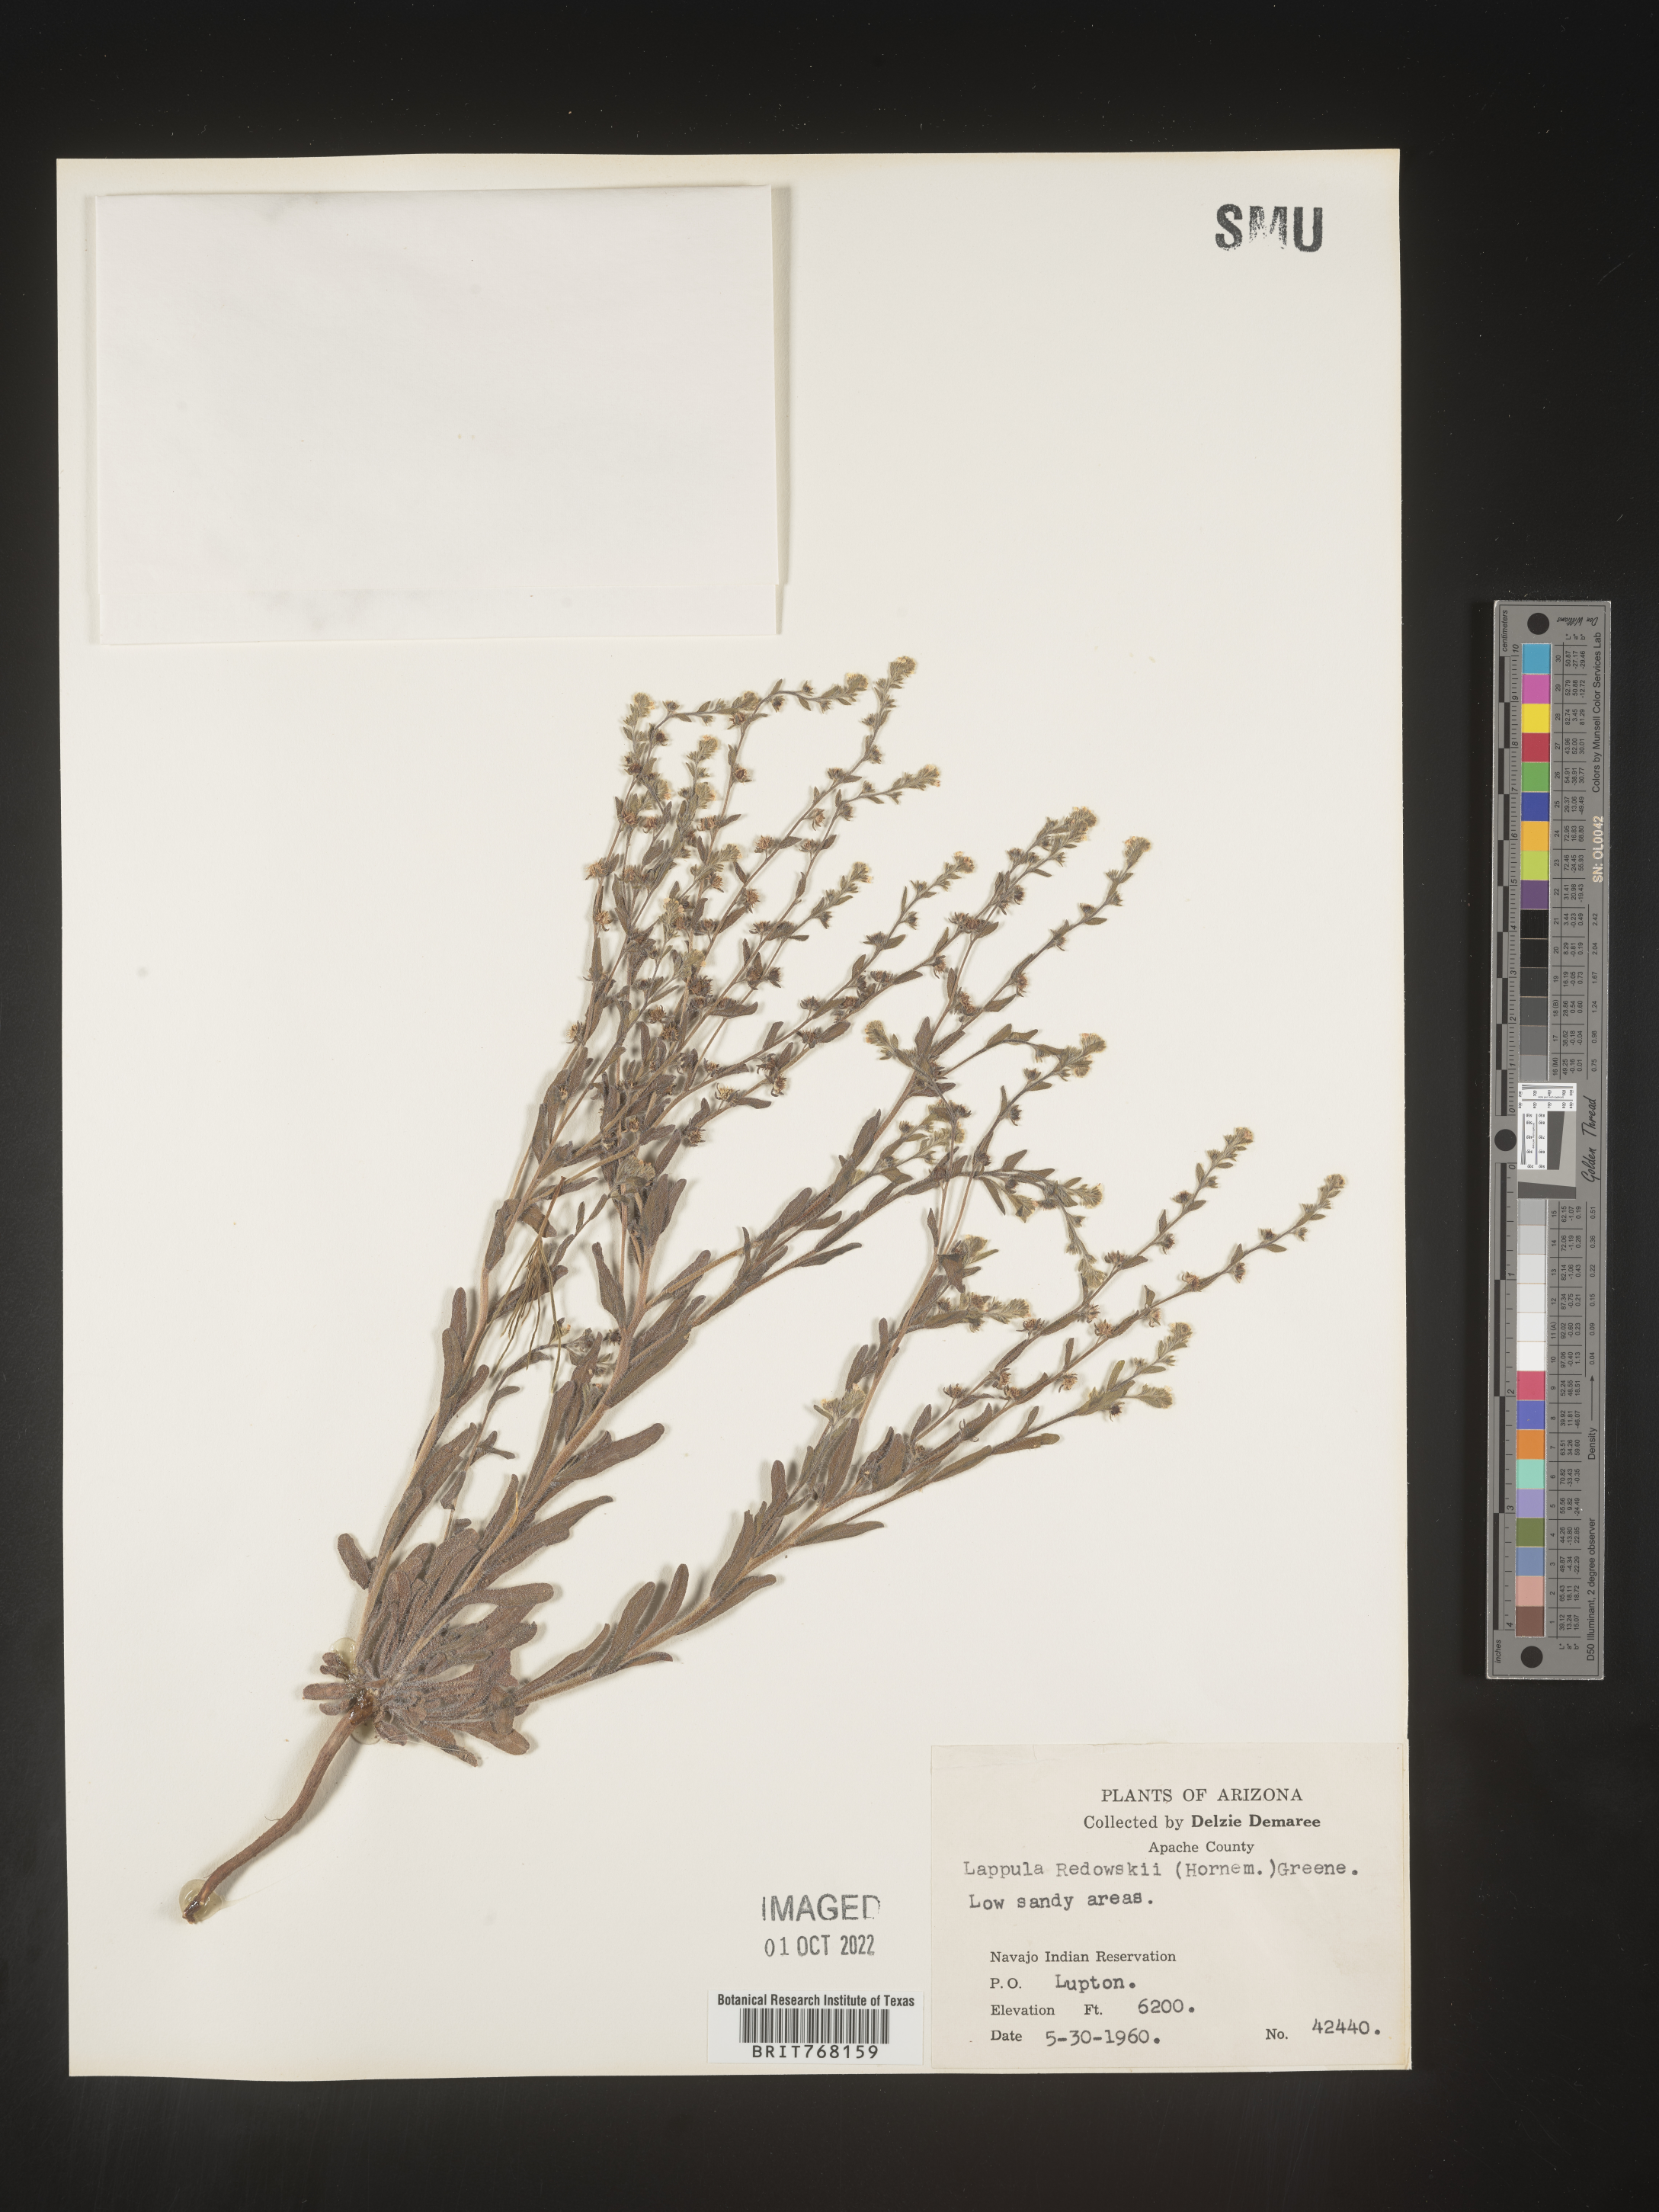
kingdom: Plantae
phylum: Tracheophyta
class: Magnoliopsida
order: Boraginales
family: Boraginaceae
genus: Lappula
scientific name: Lappula redowskii
